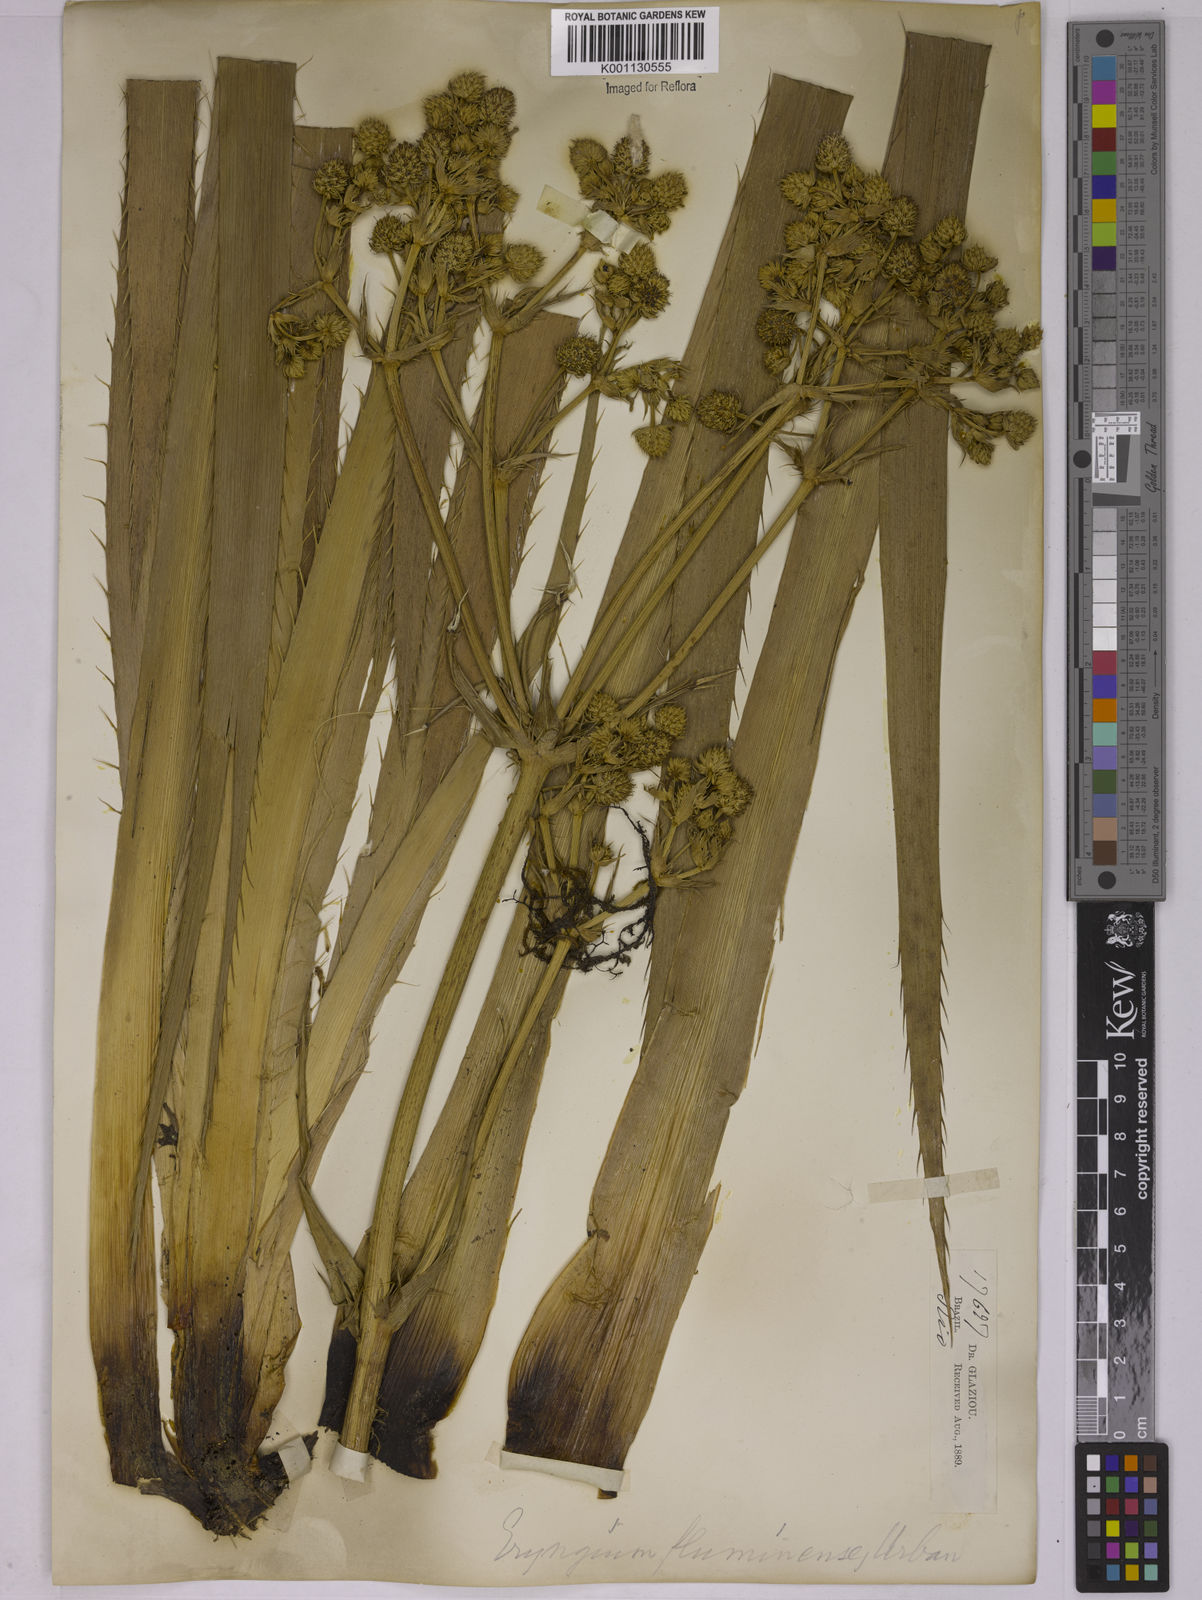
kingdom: Plantae
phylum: Tracheophyta
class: Magnoliopsida
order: Apiales
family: Apiaceae
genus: Eryngium
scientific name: Eryngium fluminense
